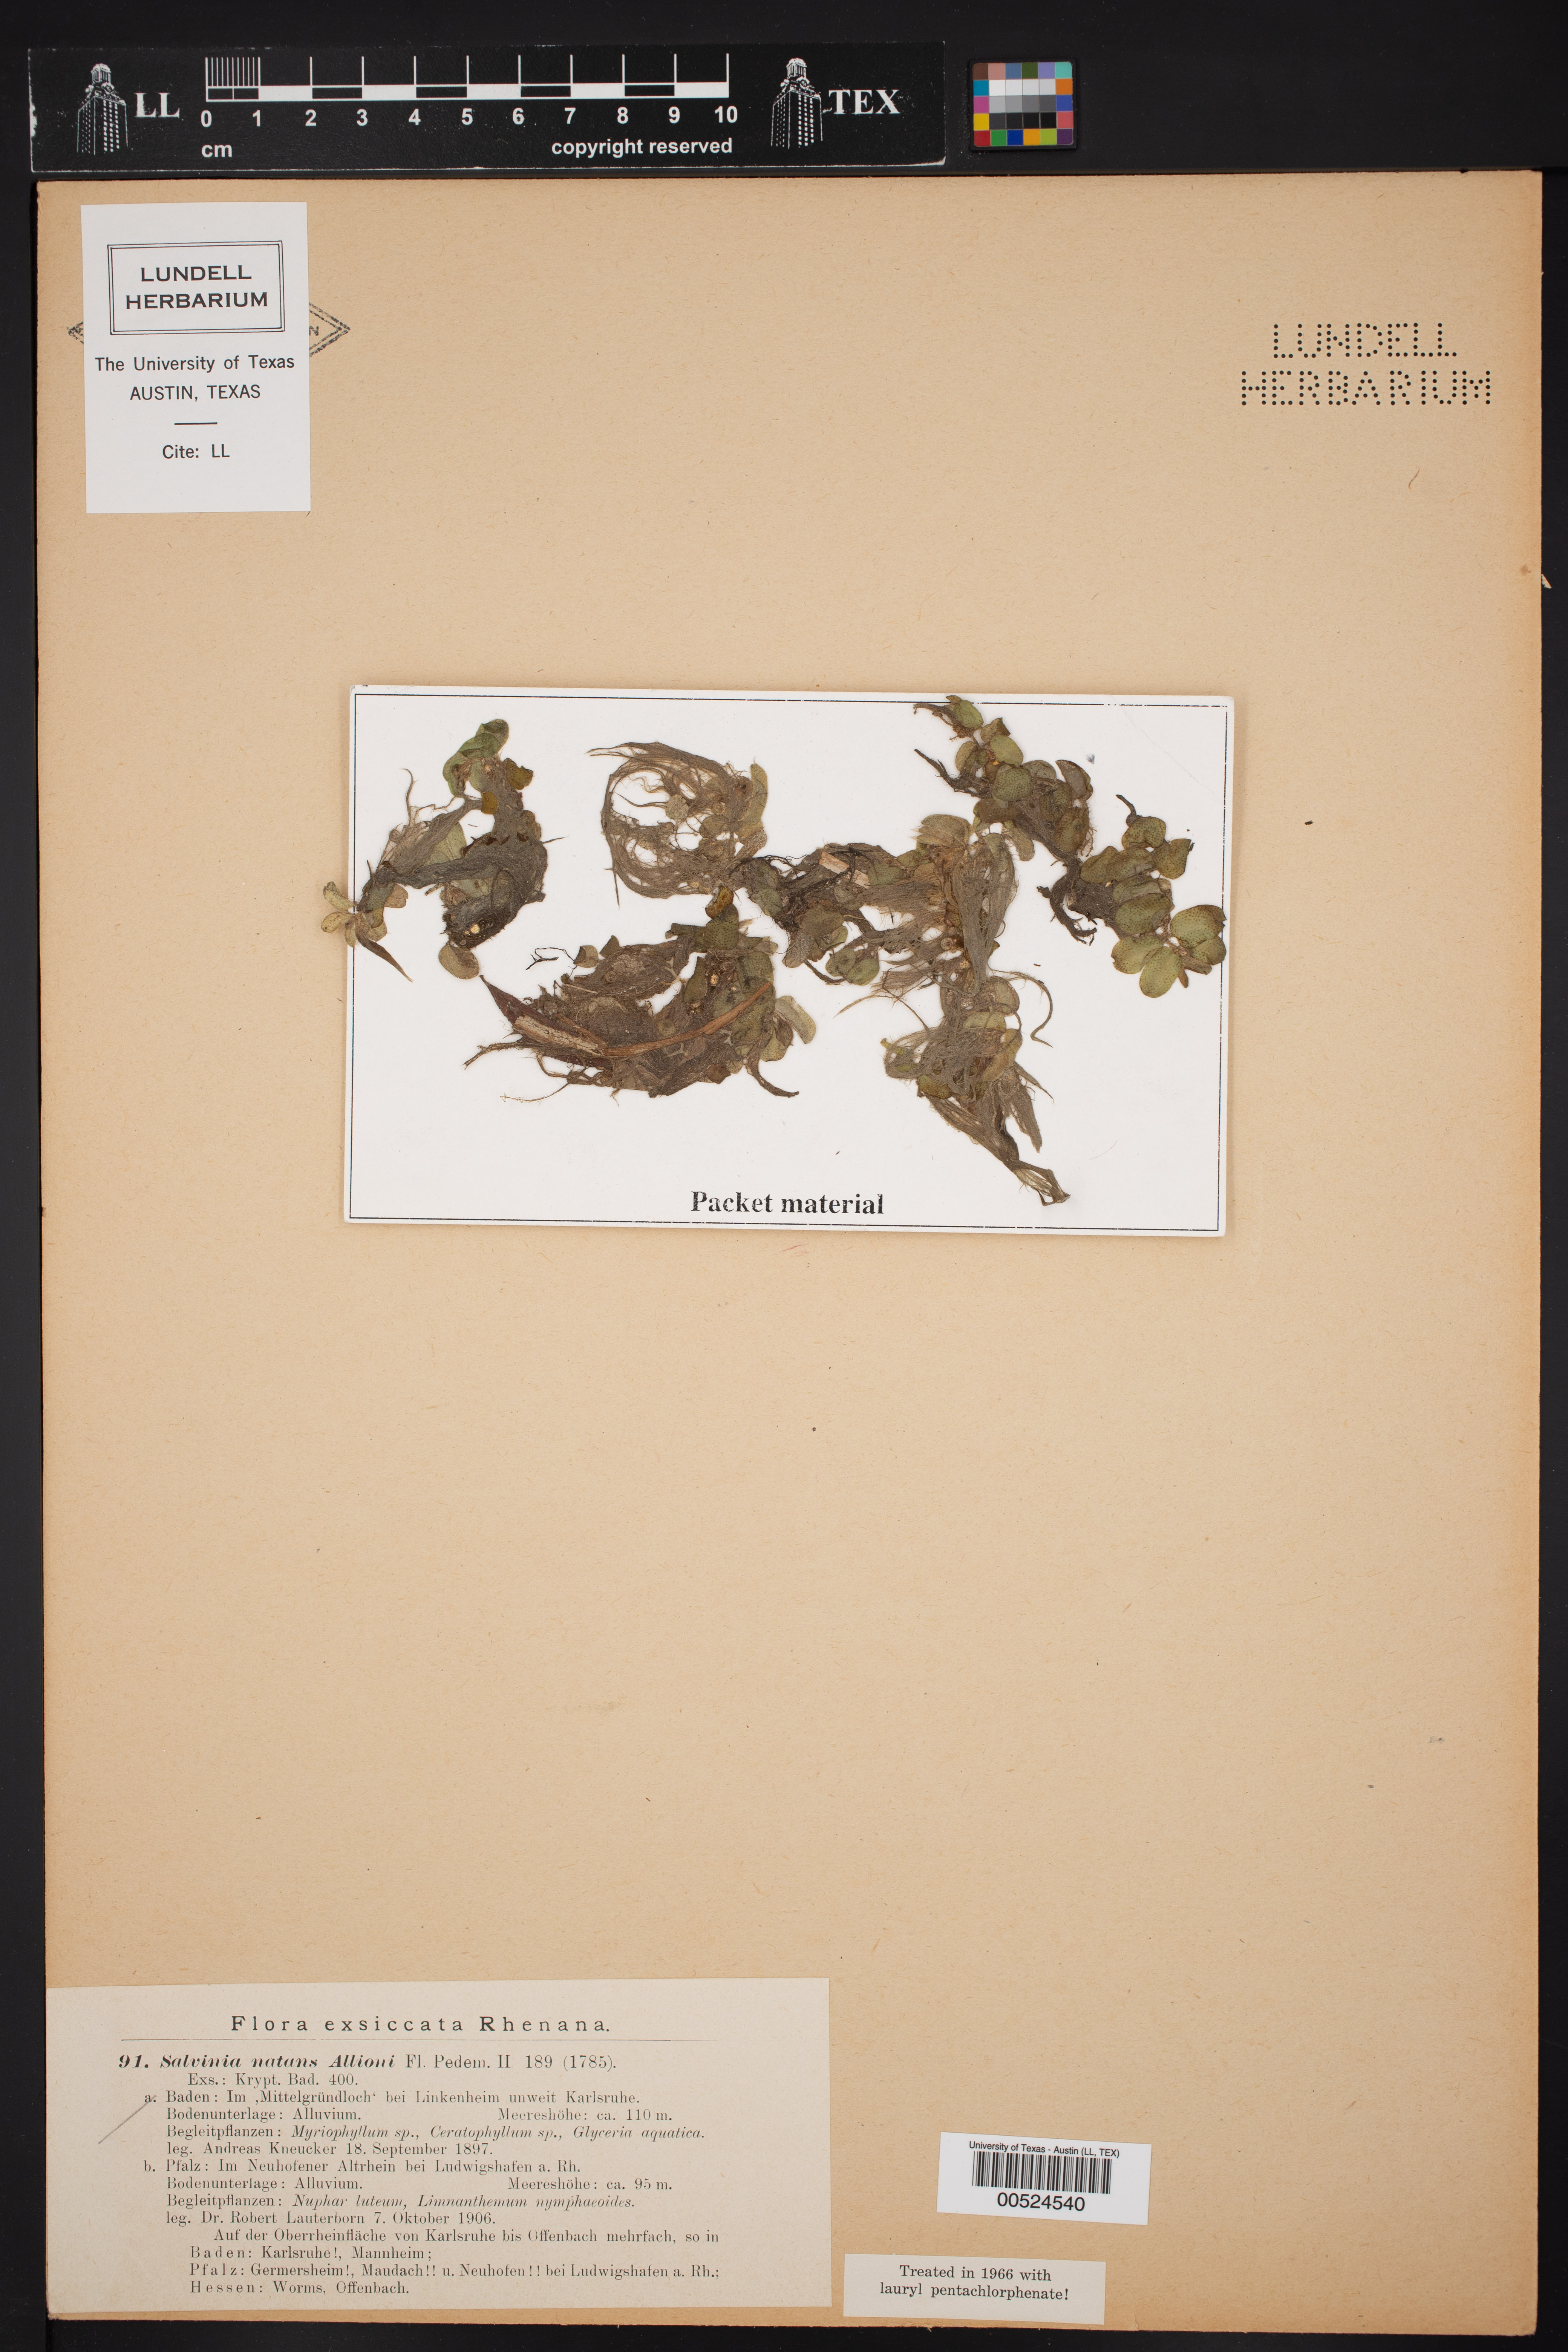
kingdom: Plantae
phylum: Tracheophyta
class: Polypodiopsida
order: Salviniales
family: Salviniaceae
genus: Salvinia
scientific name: Salvinia natans
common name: Floating fern
